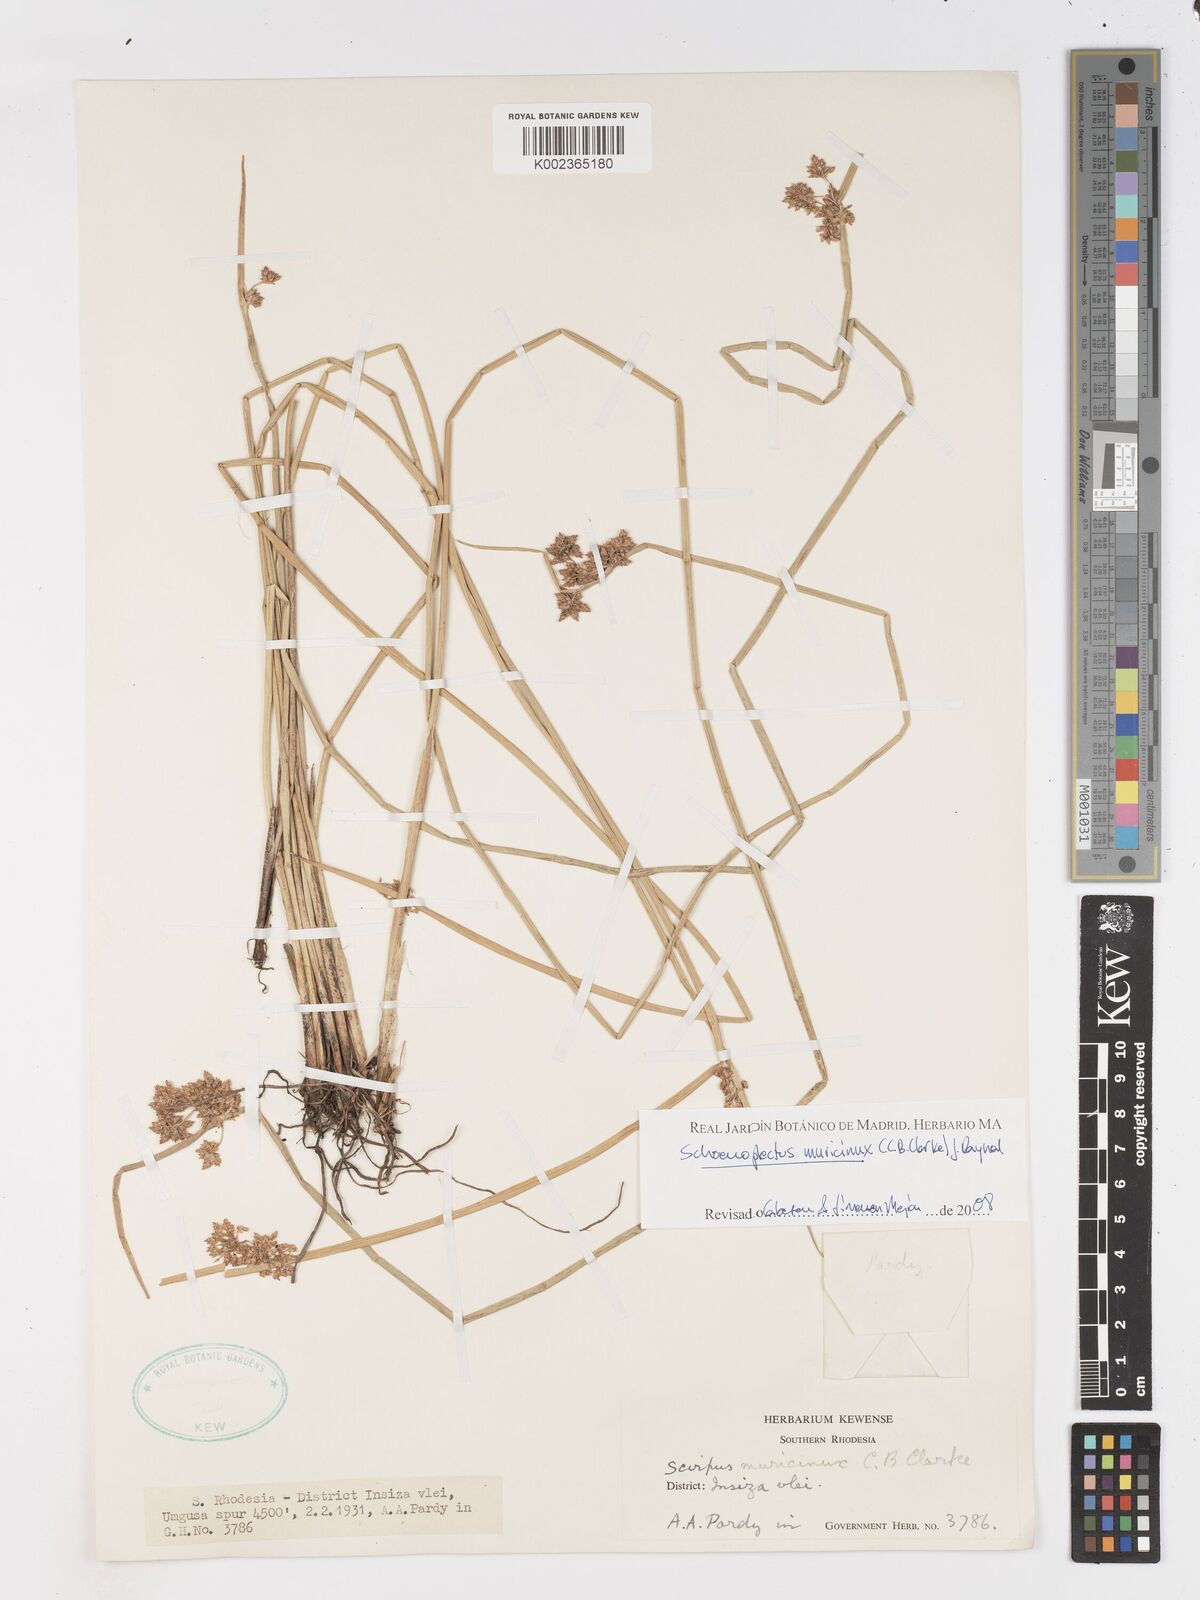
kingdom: Plantae
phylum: Tracheophyta
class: Liliopsida
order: Poales
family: Cyperaceae
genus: Schoenoplectiella
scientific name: Schoenoplectiella muricinux
